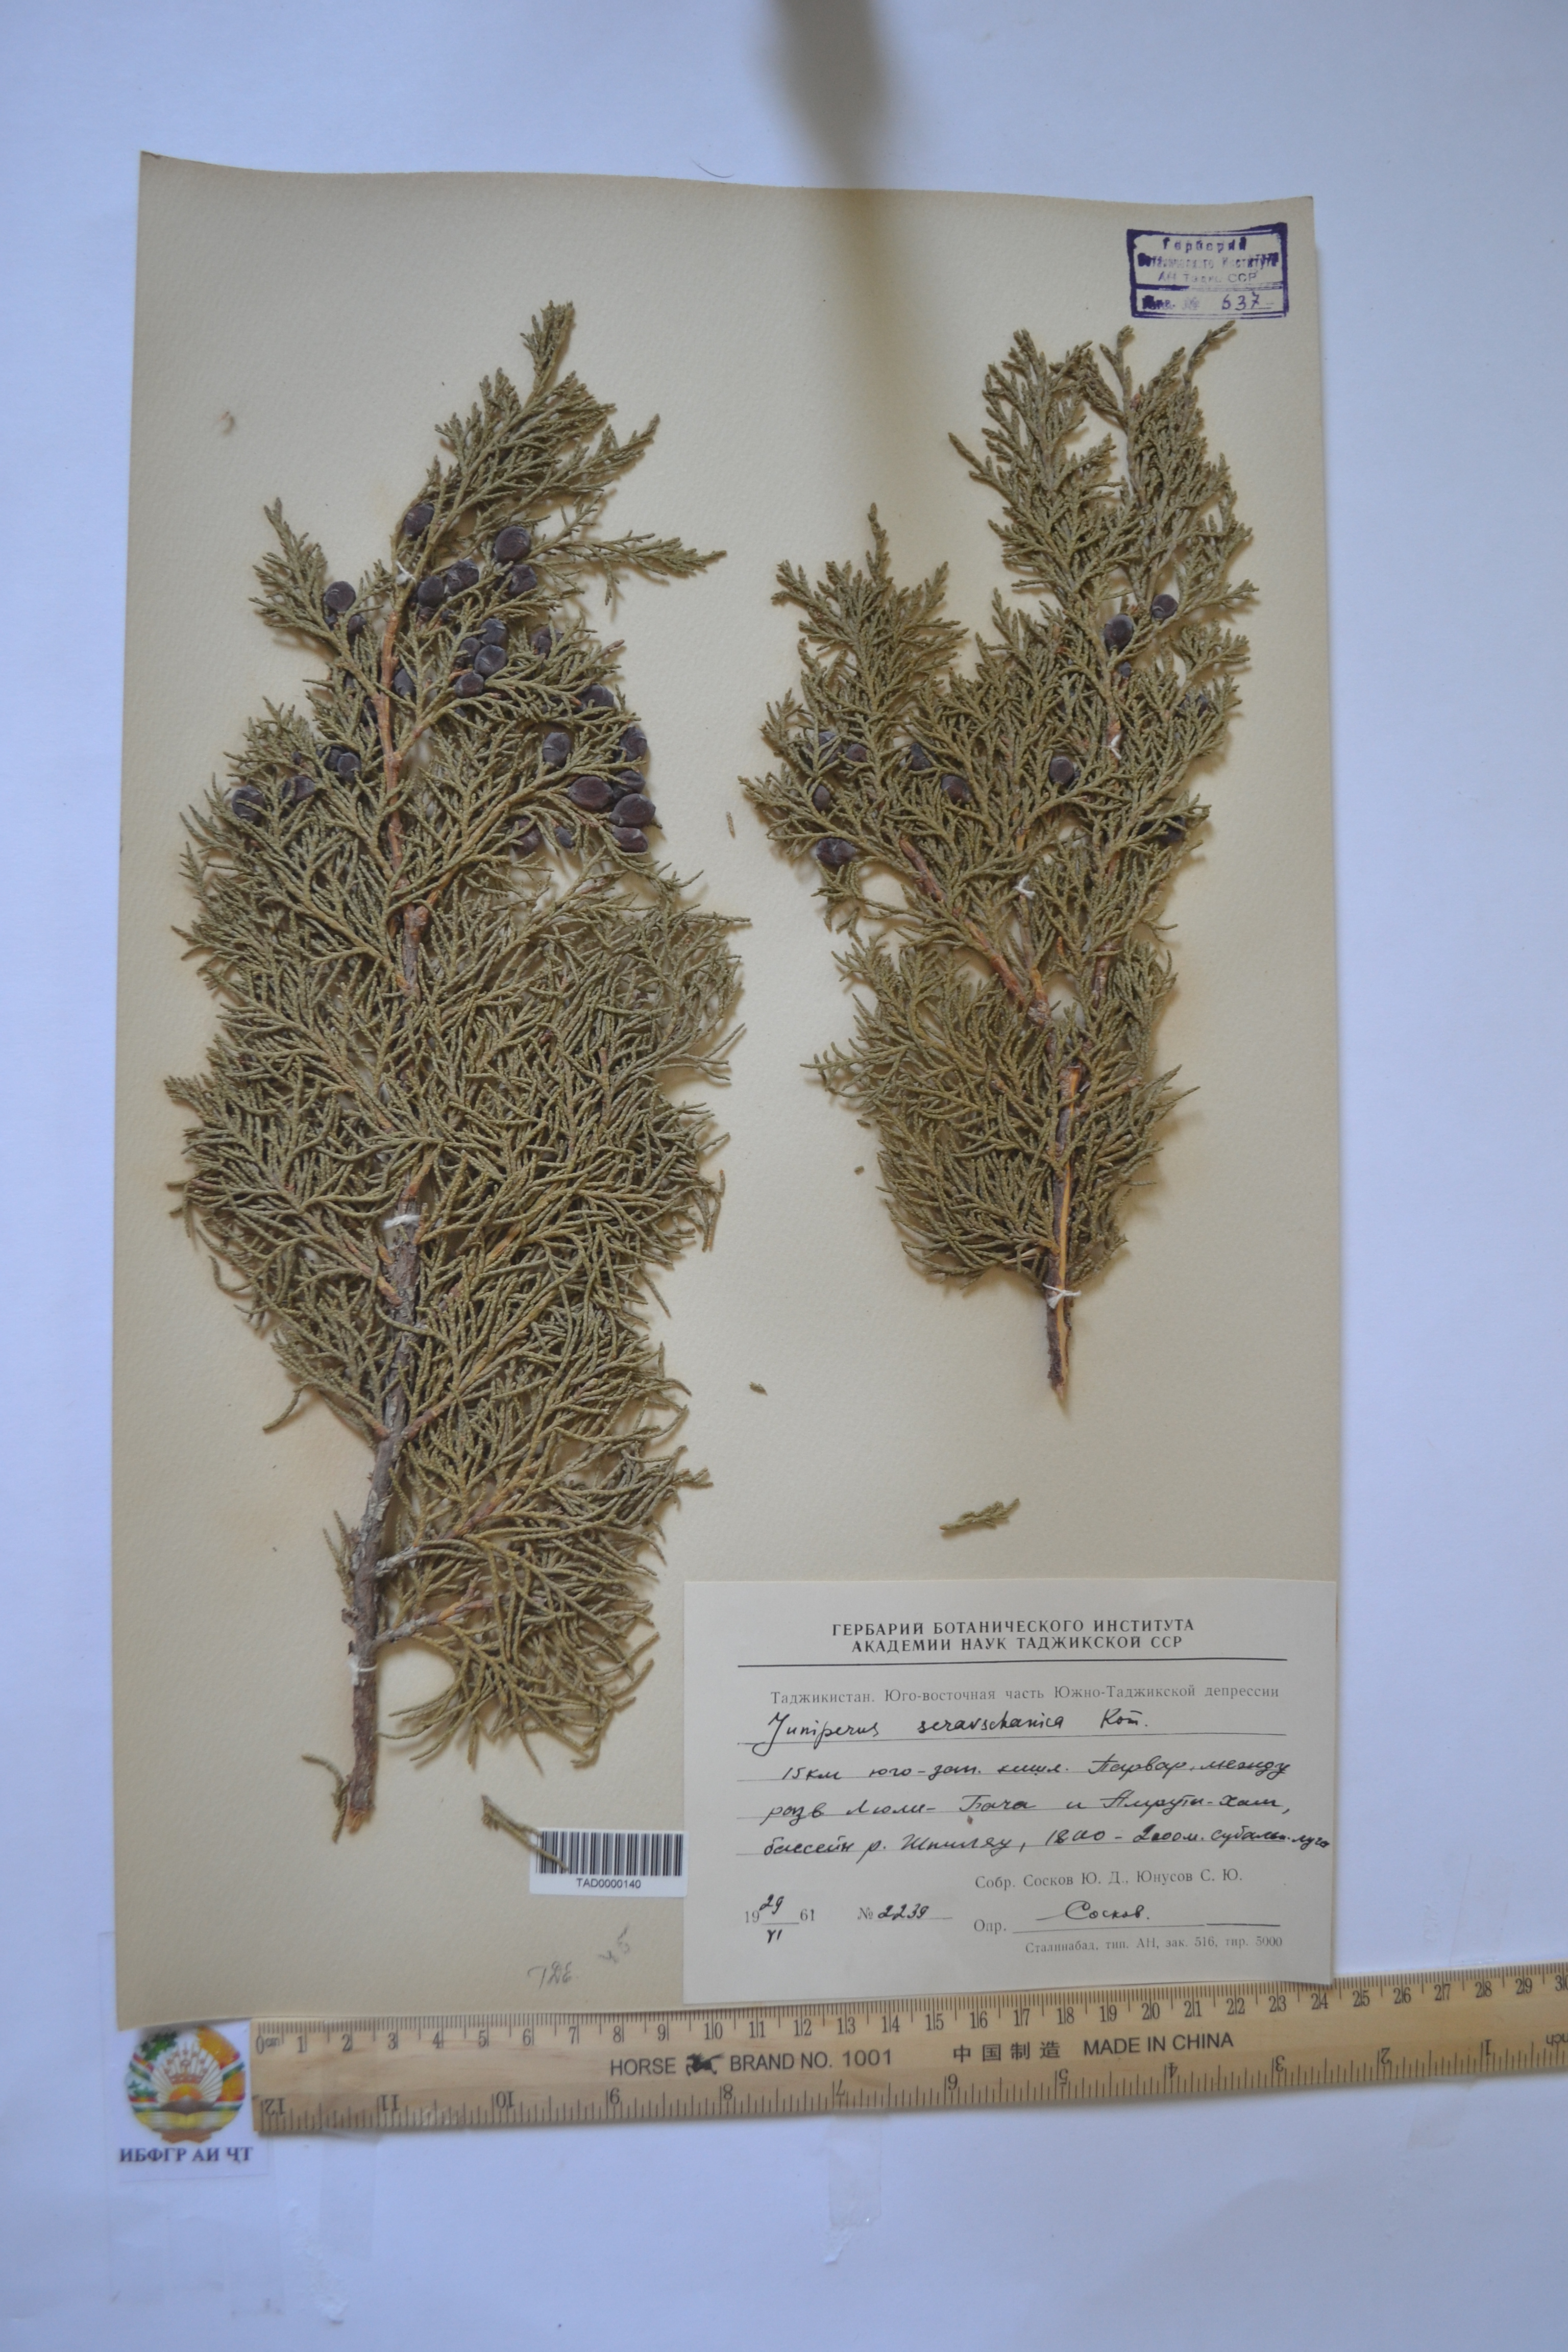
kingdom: Plantae
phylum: Tracheophyta
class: Pinopsida
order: Pinales
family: Cupressaceae
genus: Juniperus
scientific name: Juniperus excelsa
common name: Crimean juniper
